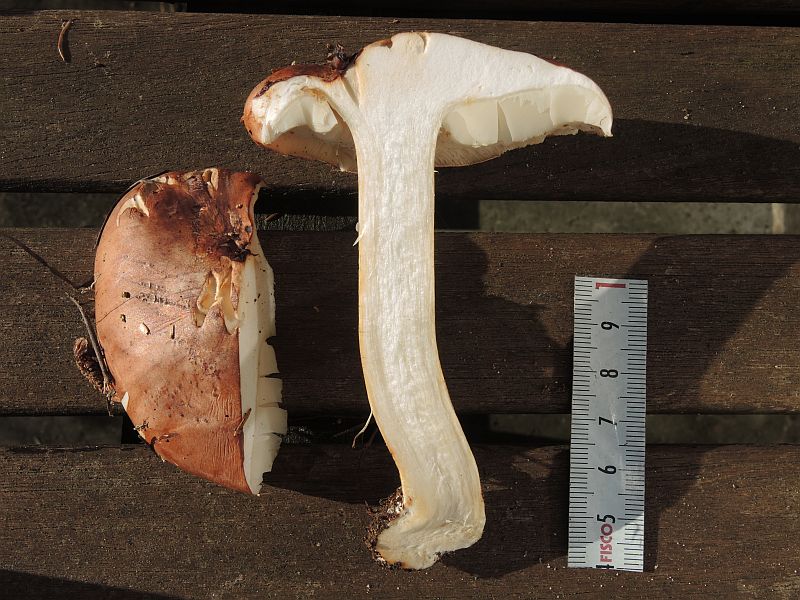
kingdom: Fungi
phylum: Basidiomycota
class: Agaricomycetes
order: Agaricales
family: Tricholomataceae
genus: Tricholoma
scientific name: Tricholoma pessundatum
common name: dråbeplettet ridderhat
